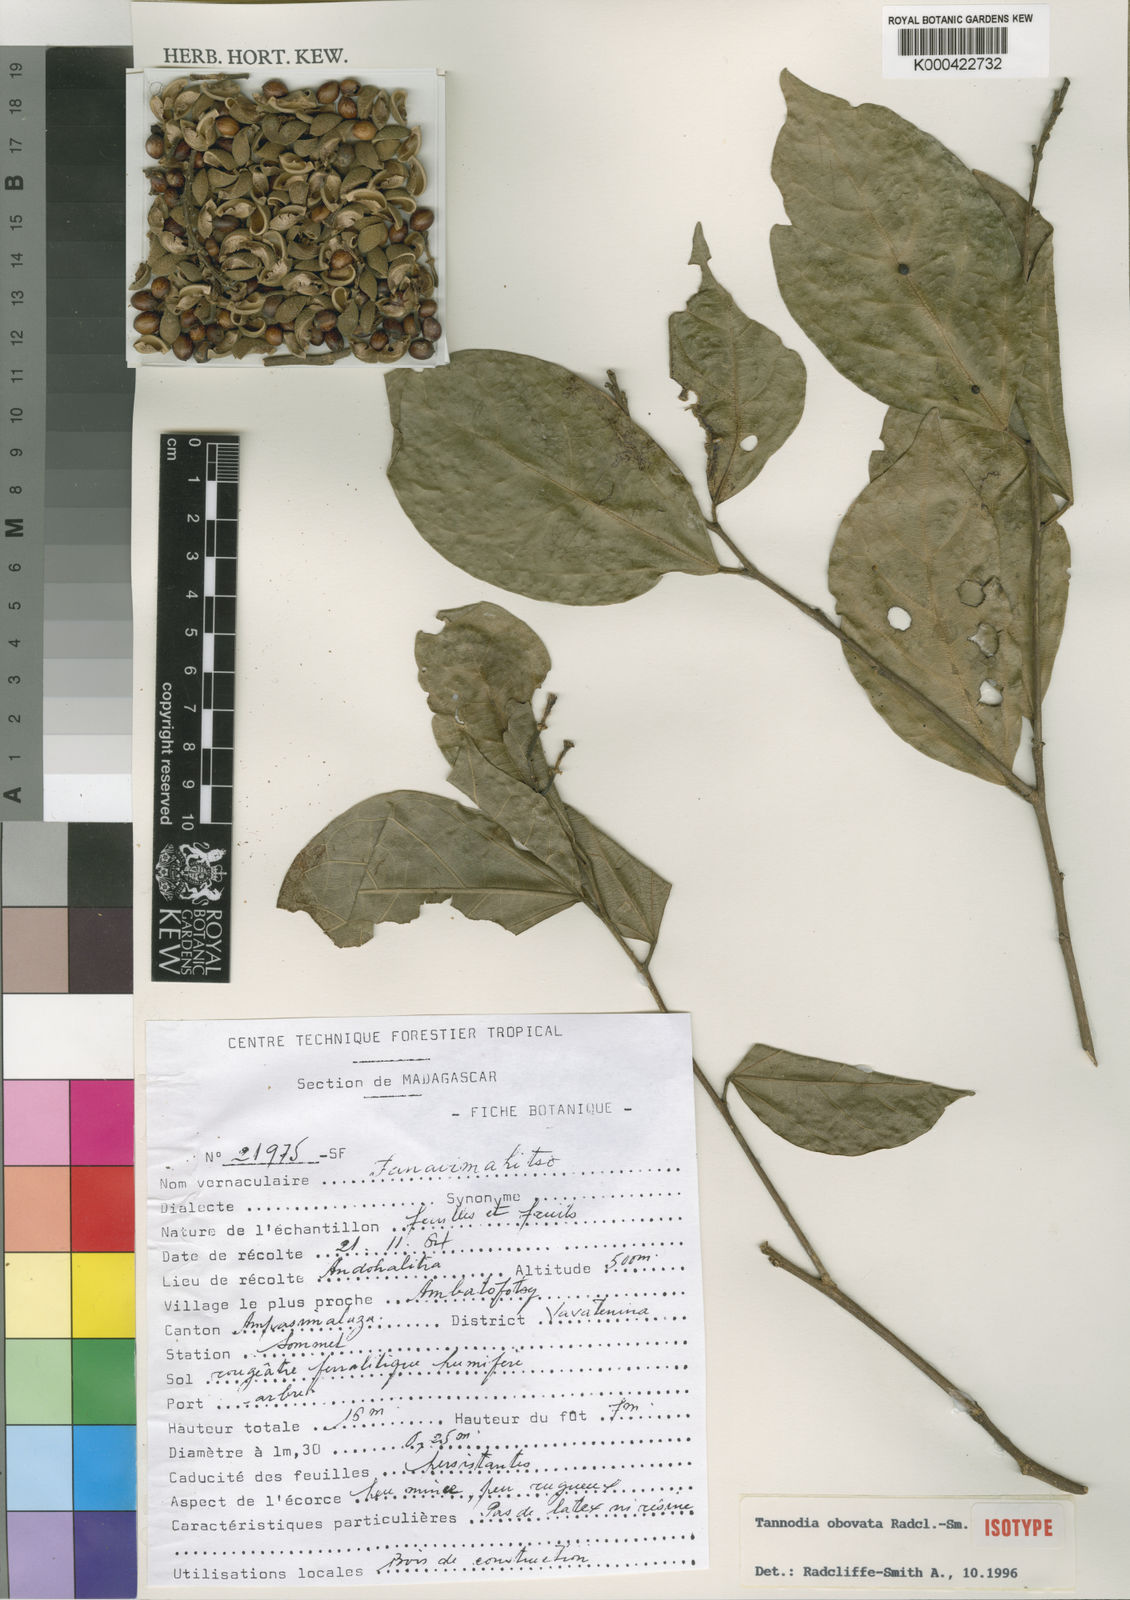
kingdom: Plantae
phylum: Tracheophyta
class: Magnoliopsida
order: Malpighiales
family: Euphorbiaceae
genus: Tannodia
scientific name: Tannodia obovata
